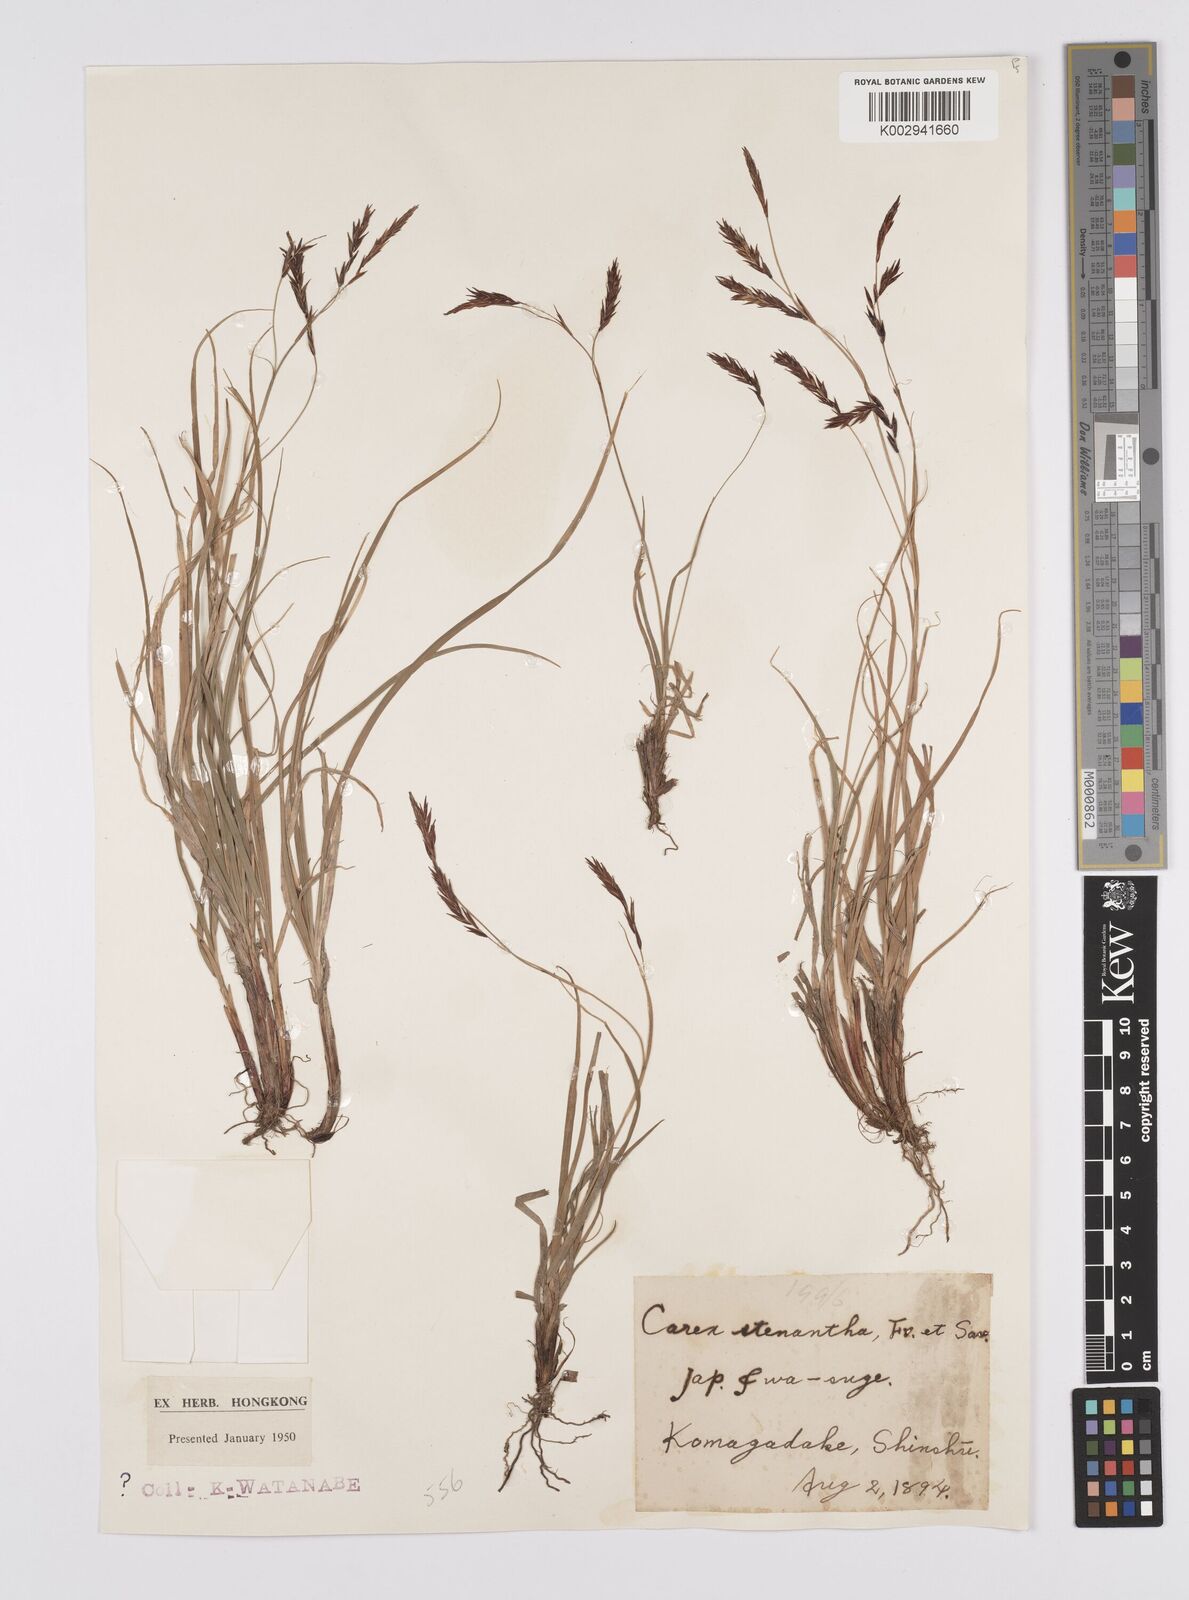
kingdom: Plantae
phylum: Tracheophyta
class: Liliopsida
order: Poales
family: Cyperaceae
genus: Carex
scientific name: Carex stenantha
